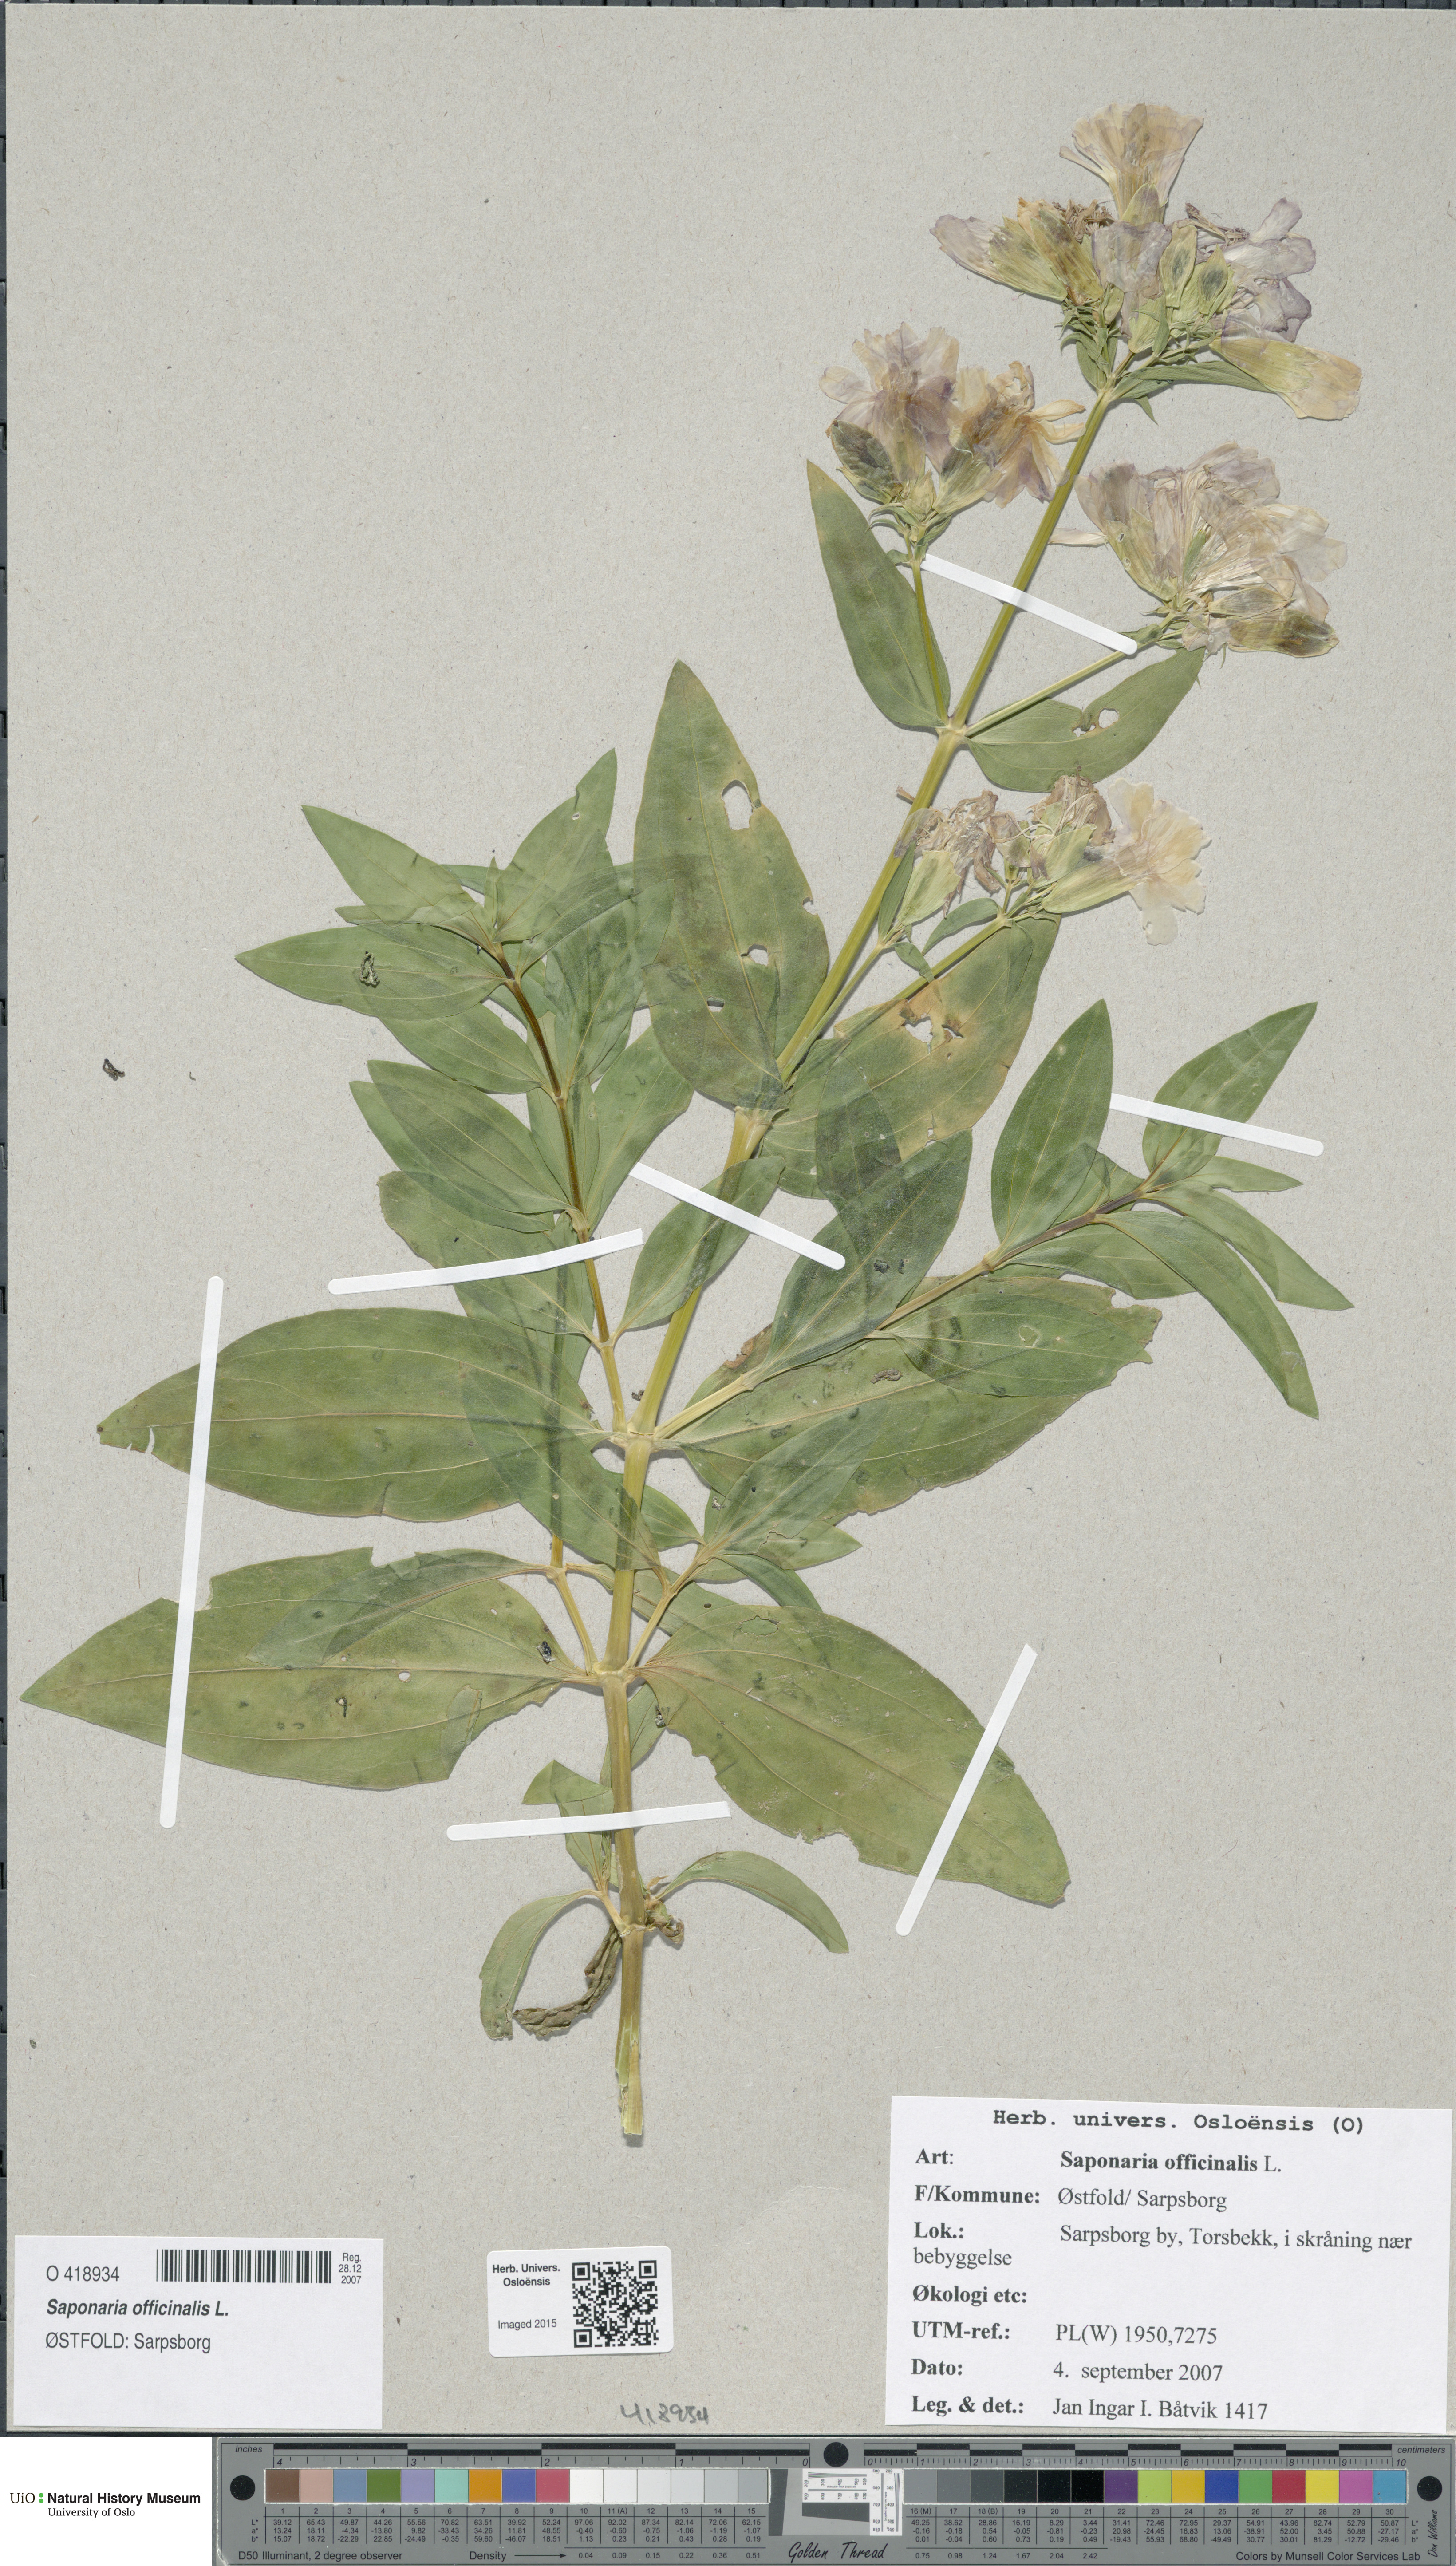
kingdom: Plantae
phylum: Tracheophyta
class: Magnoliopsida
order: Caryophyllales
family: Caryophyllaceae
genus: Saponaria
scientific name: Saponaria officinalis
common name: Soapwort
